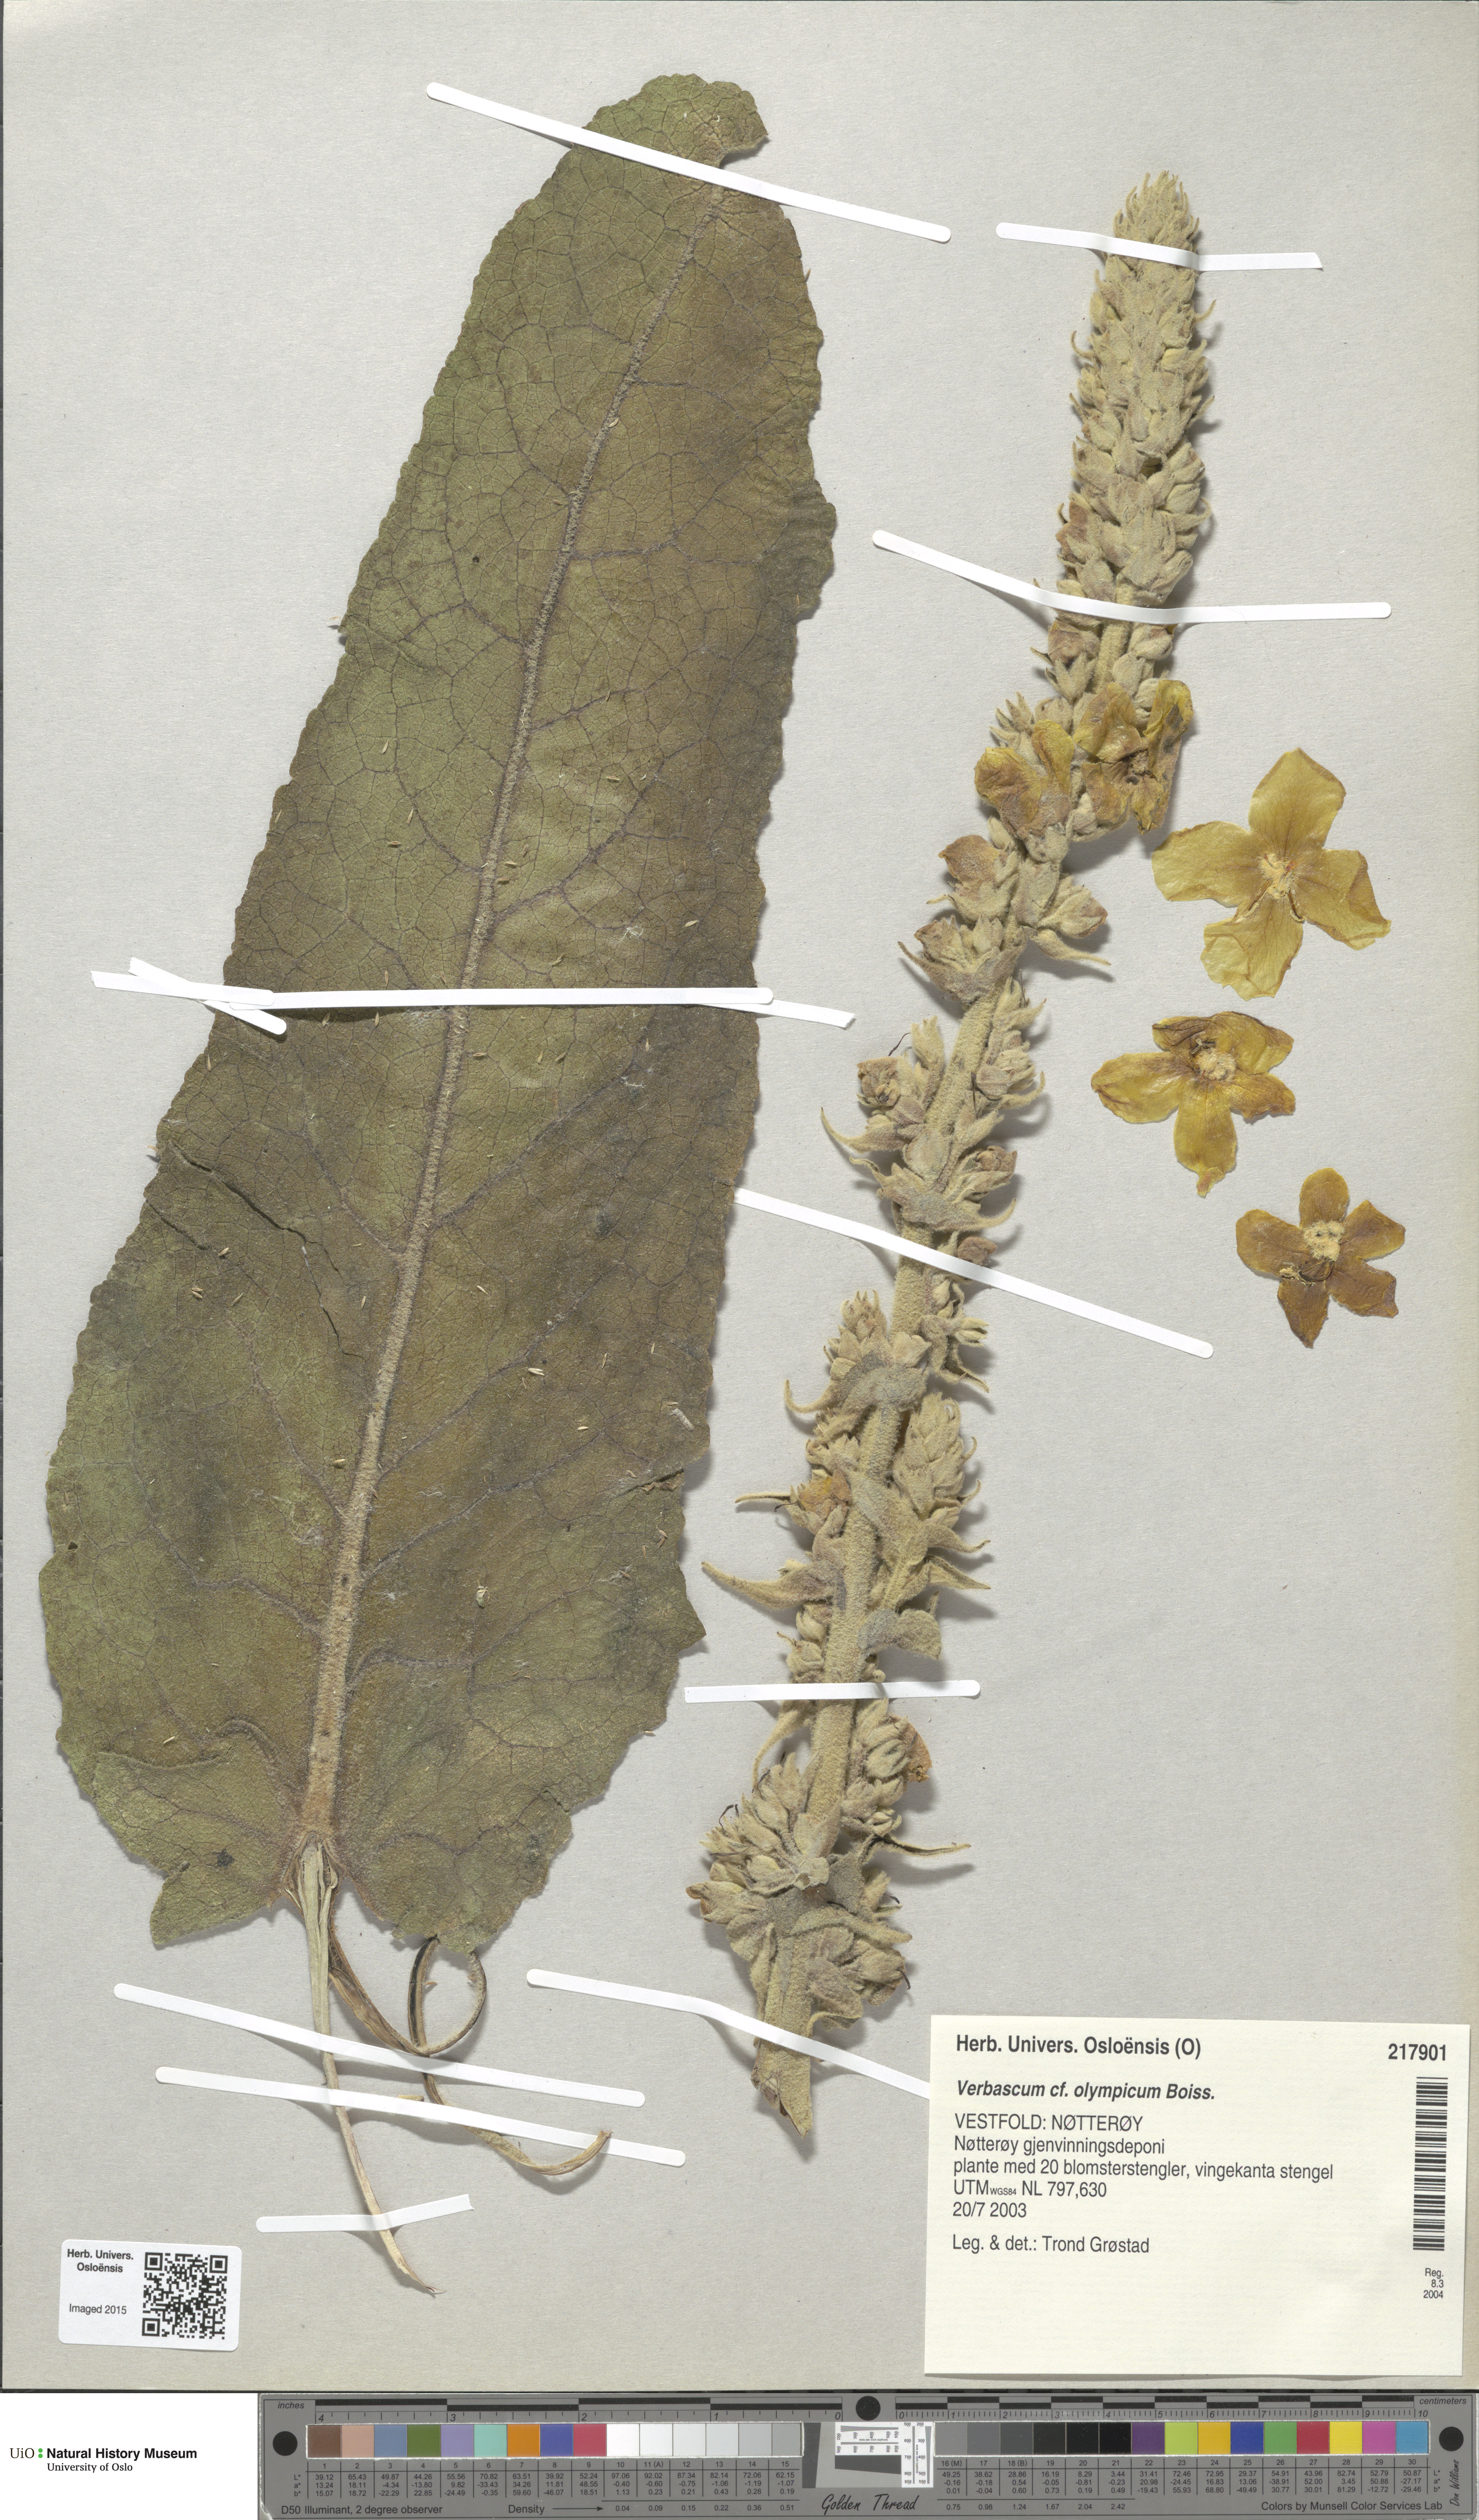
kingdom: Plantae
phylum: Tracheophyta
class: Magnoliopsida
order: Lamiales
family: Scrophulariaceae
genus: Verbascum
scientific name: Verbascum phlomoides
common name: Orange mullein
